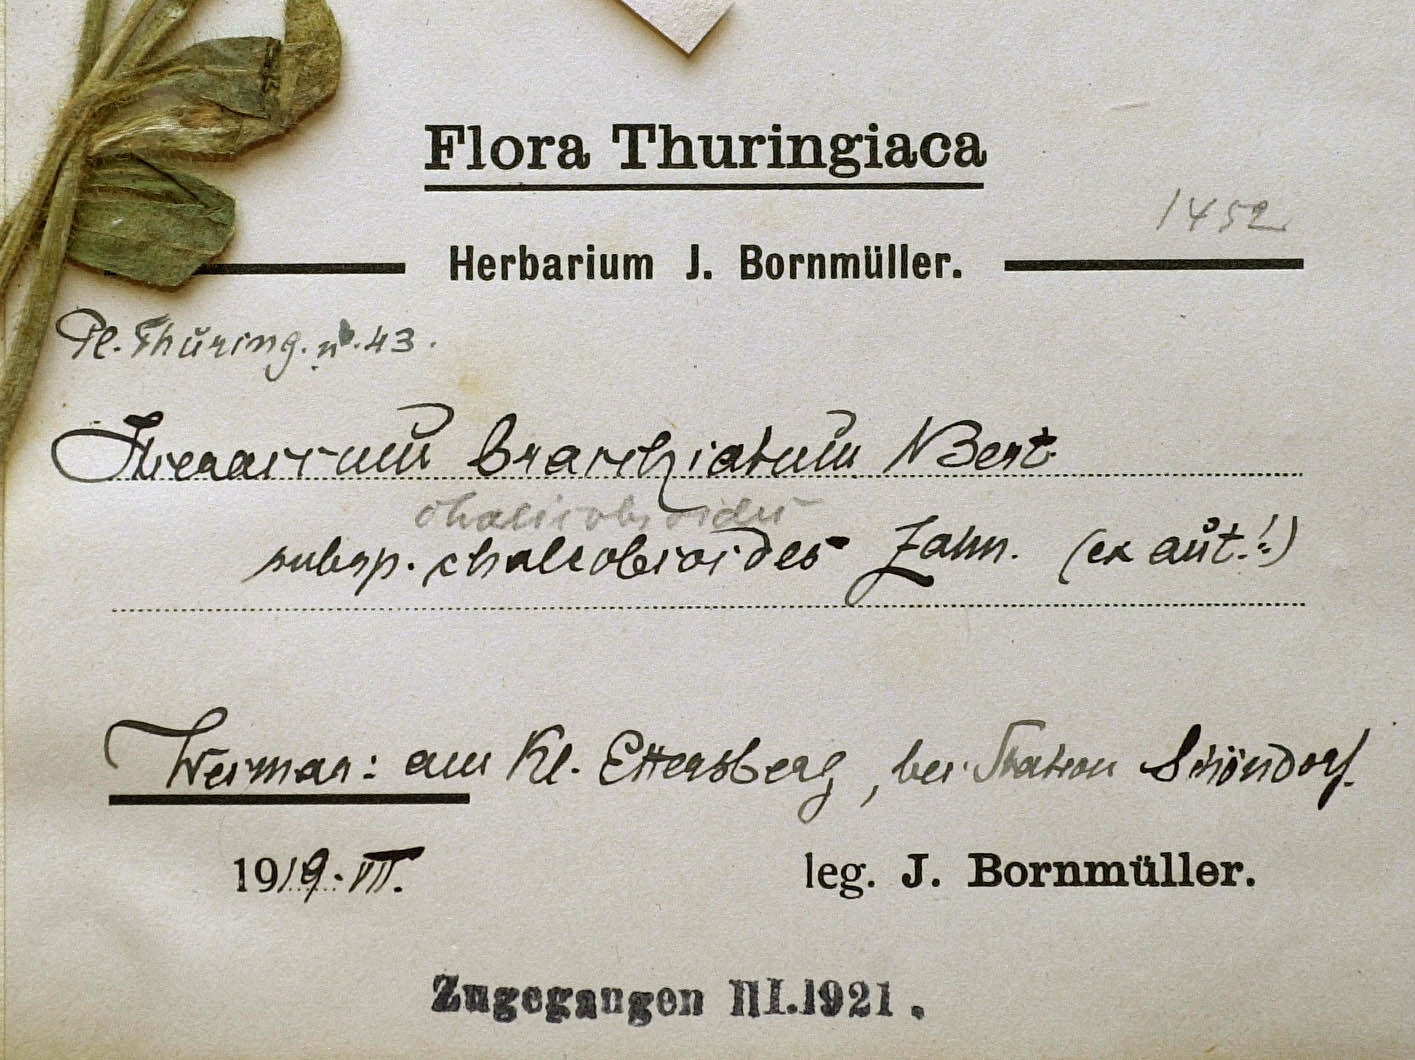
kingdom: Plantae
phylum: Tracheophyta
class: Magnoliopsida
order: Asterales
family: Asteraceae
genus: Pilosella
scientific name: Pilosella acutifolia
